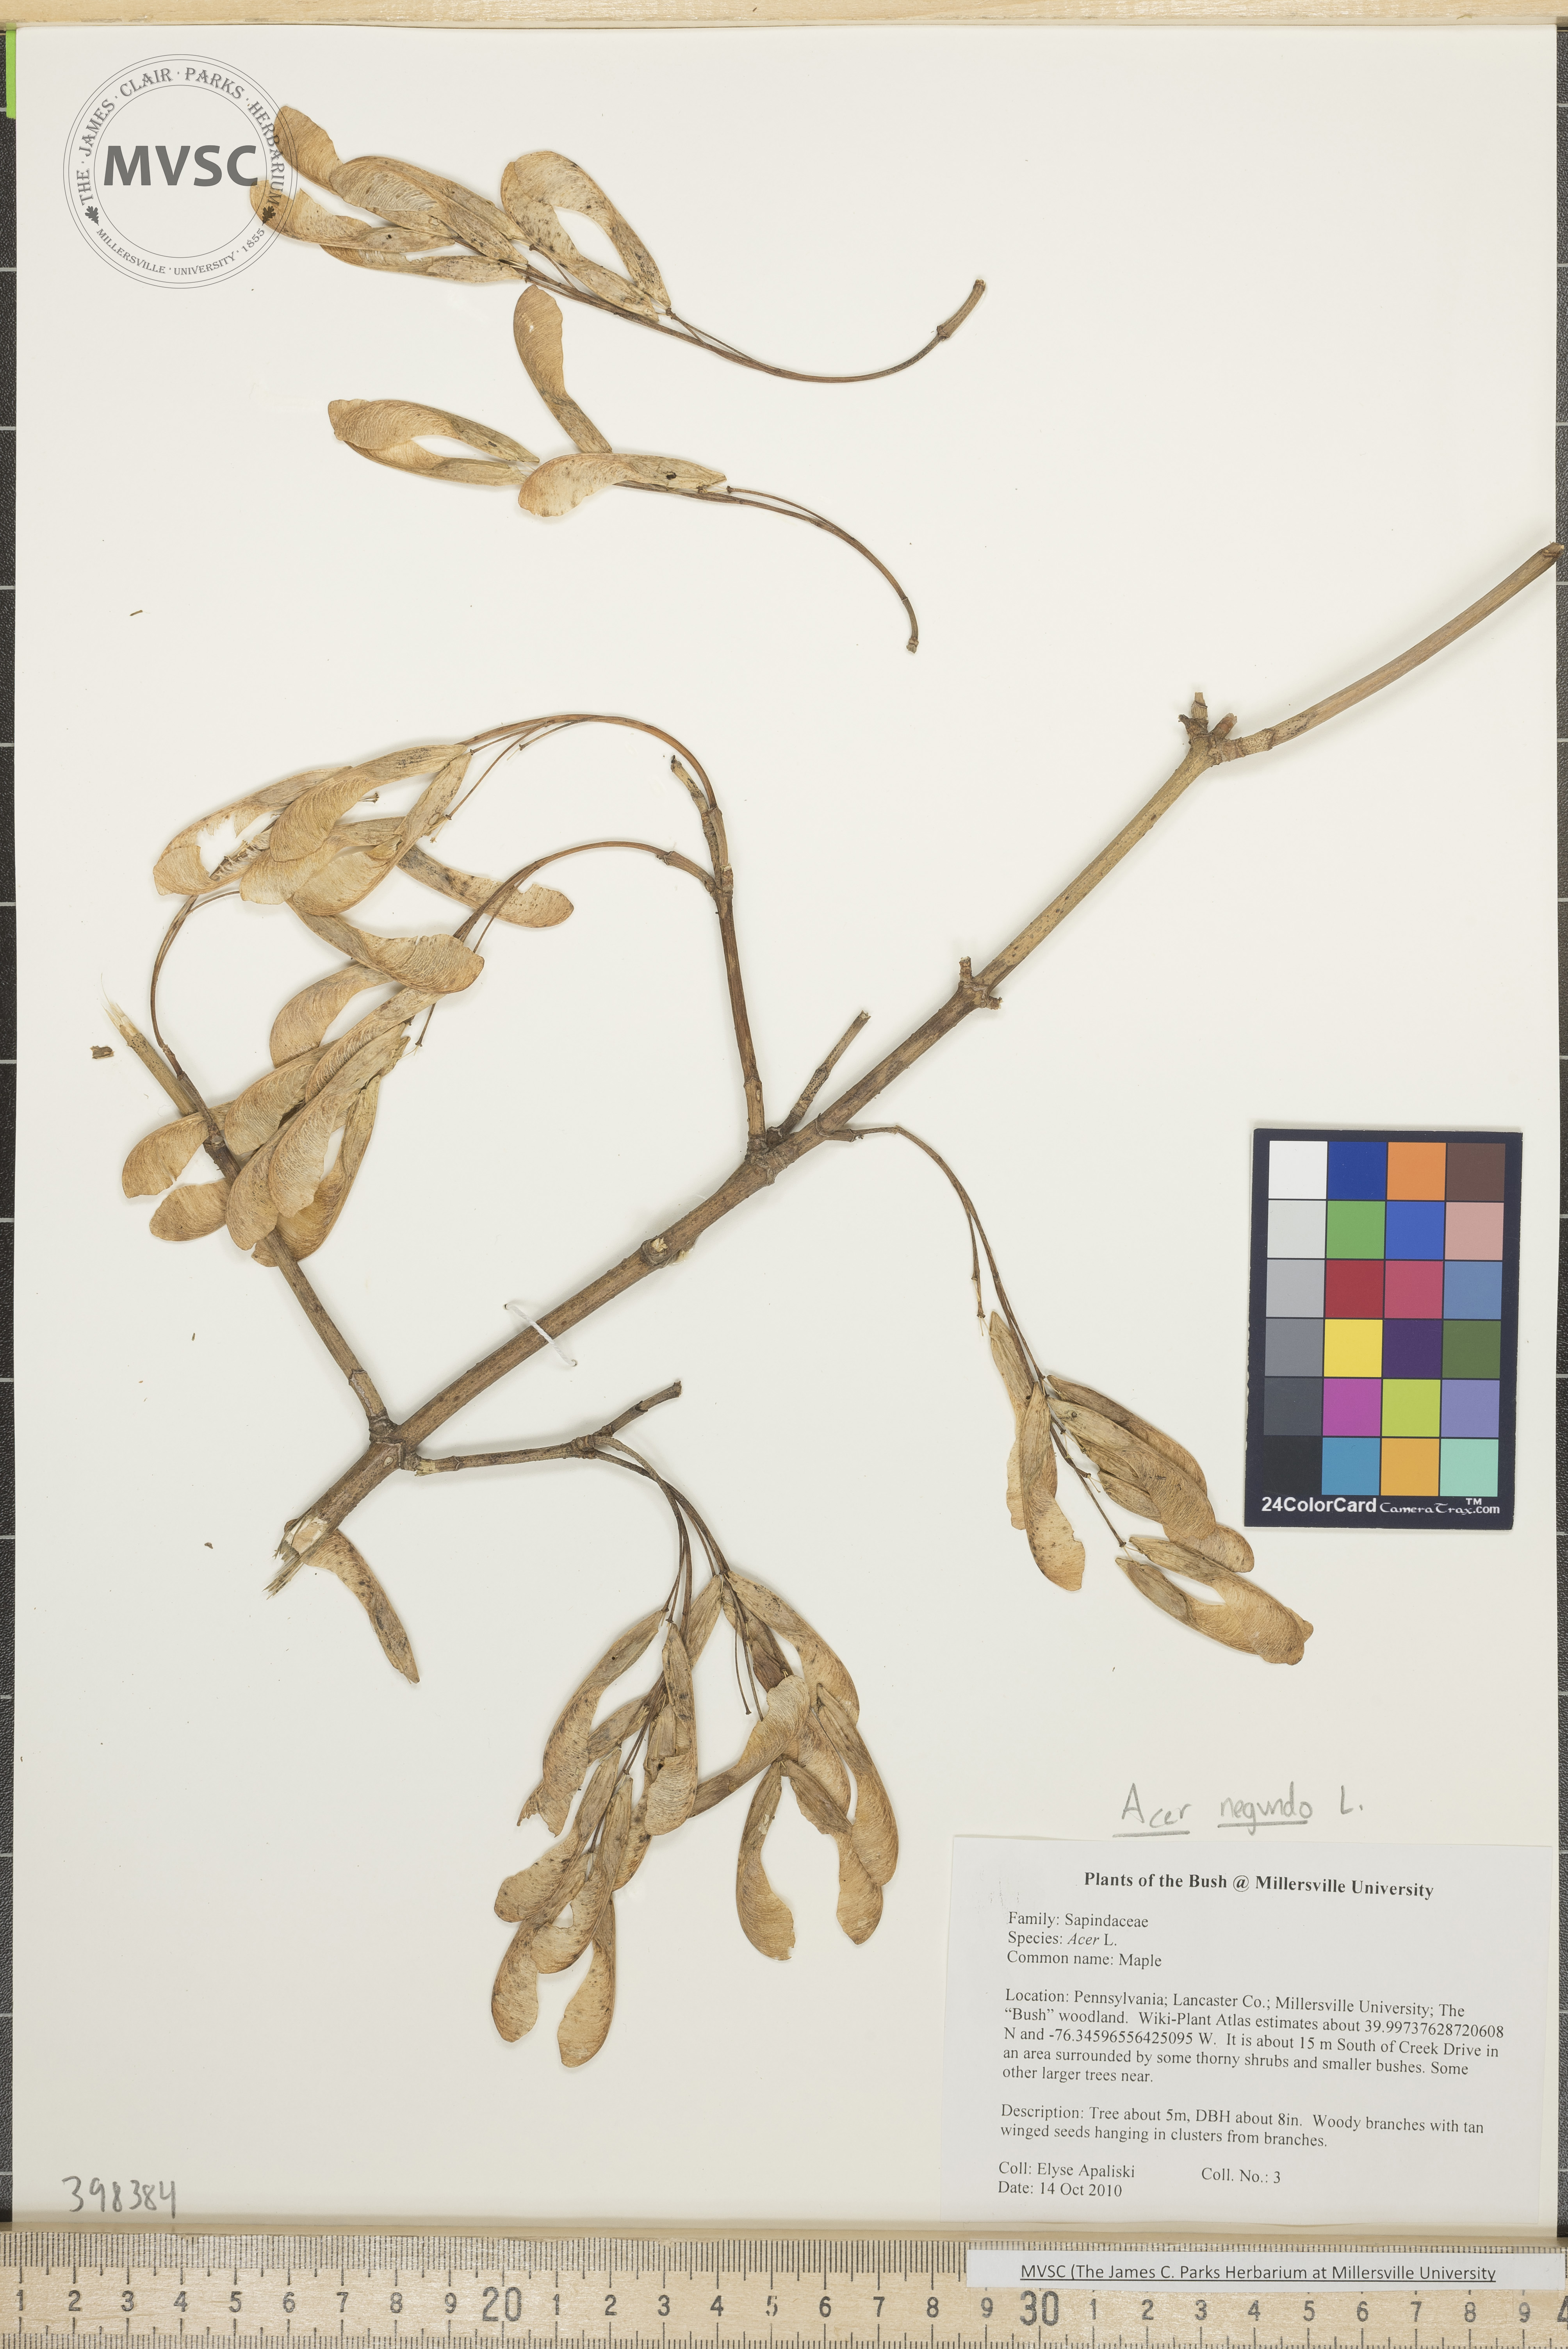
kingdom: Plantae
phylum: Tracheophyta
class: Magnoliopsida
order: Sapindales
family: Sapindaceae
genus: Acer
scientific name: Acer negundo
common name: Box-elder
